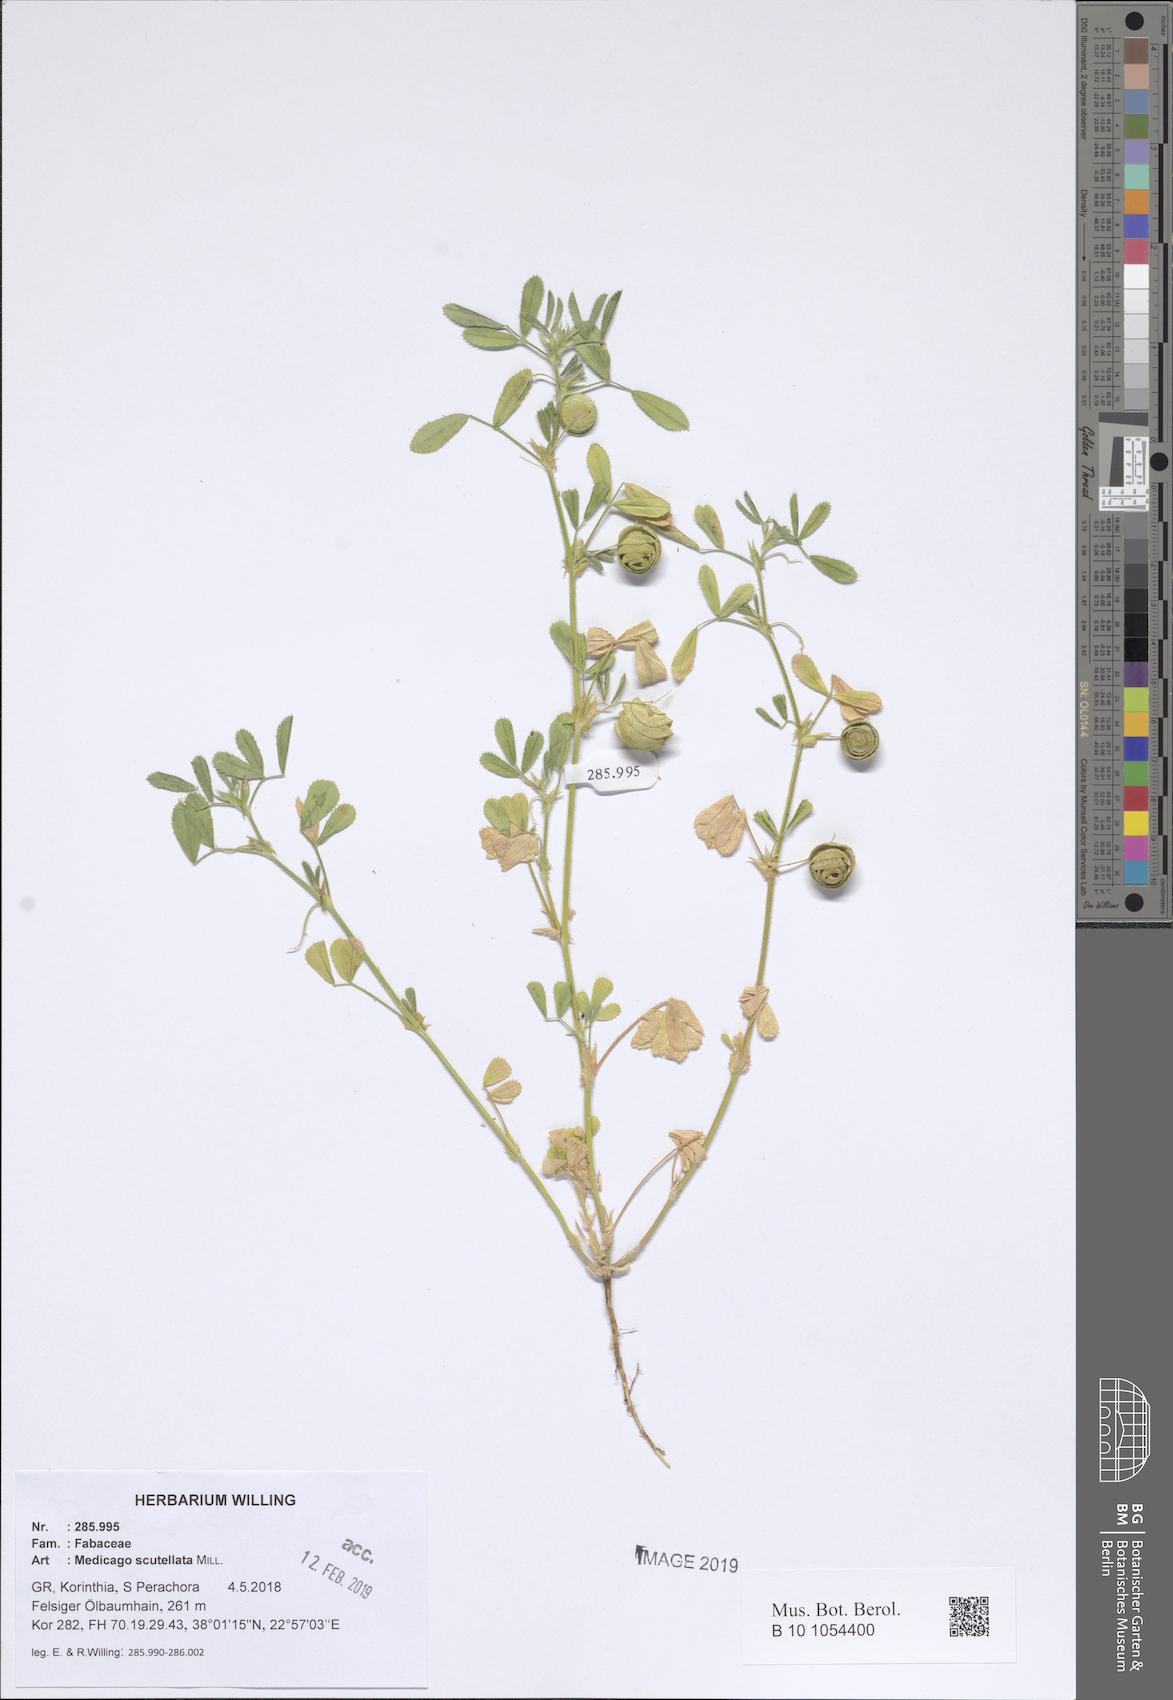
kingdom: Plantae
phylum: Tracheophyta
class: Magnoliopsida
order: Fabales
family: Fabaceae
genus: Medicago
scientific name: Medicago scutellata
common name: Snail medick
